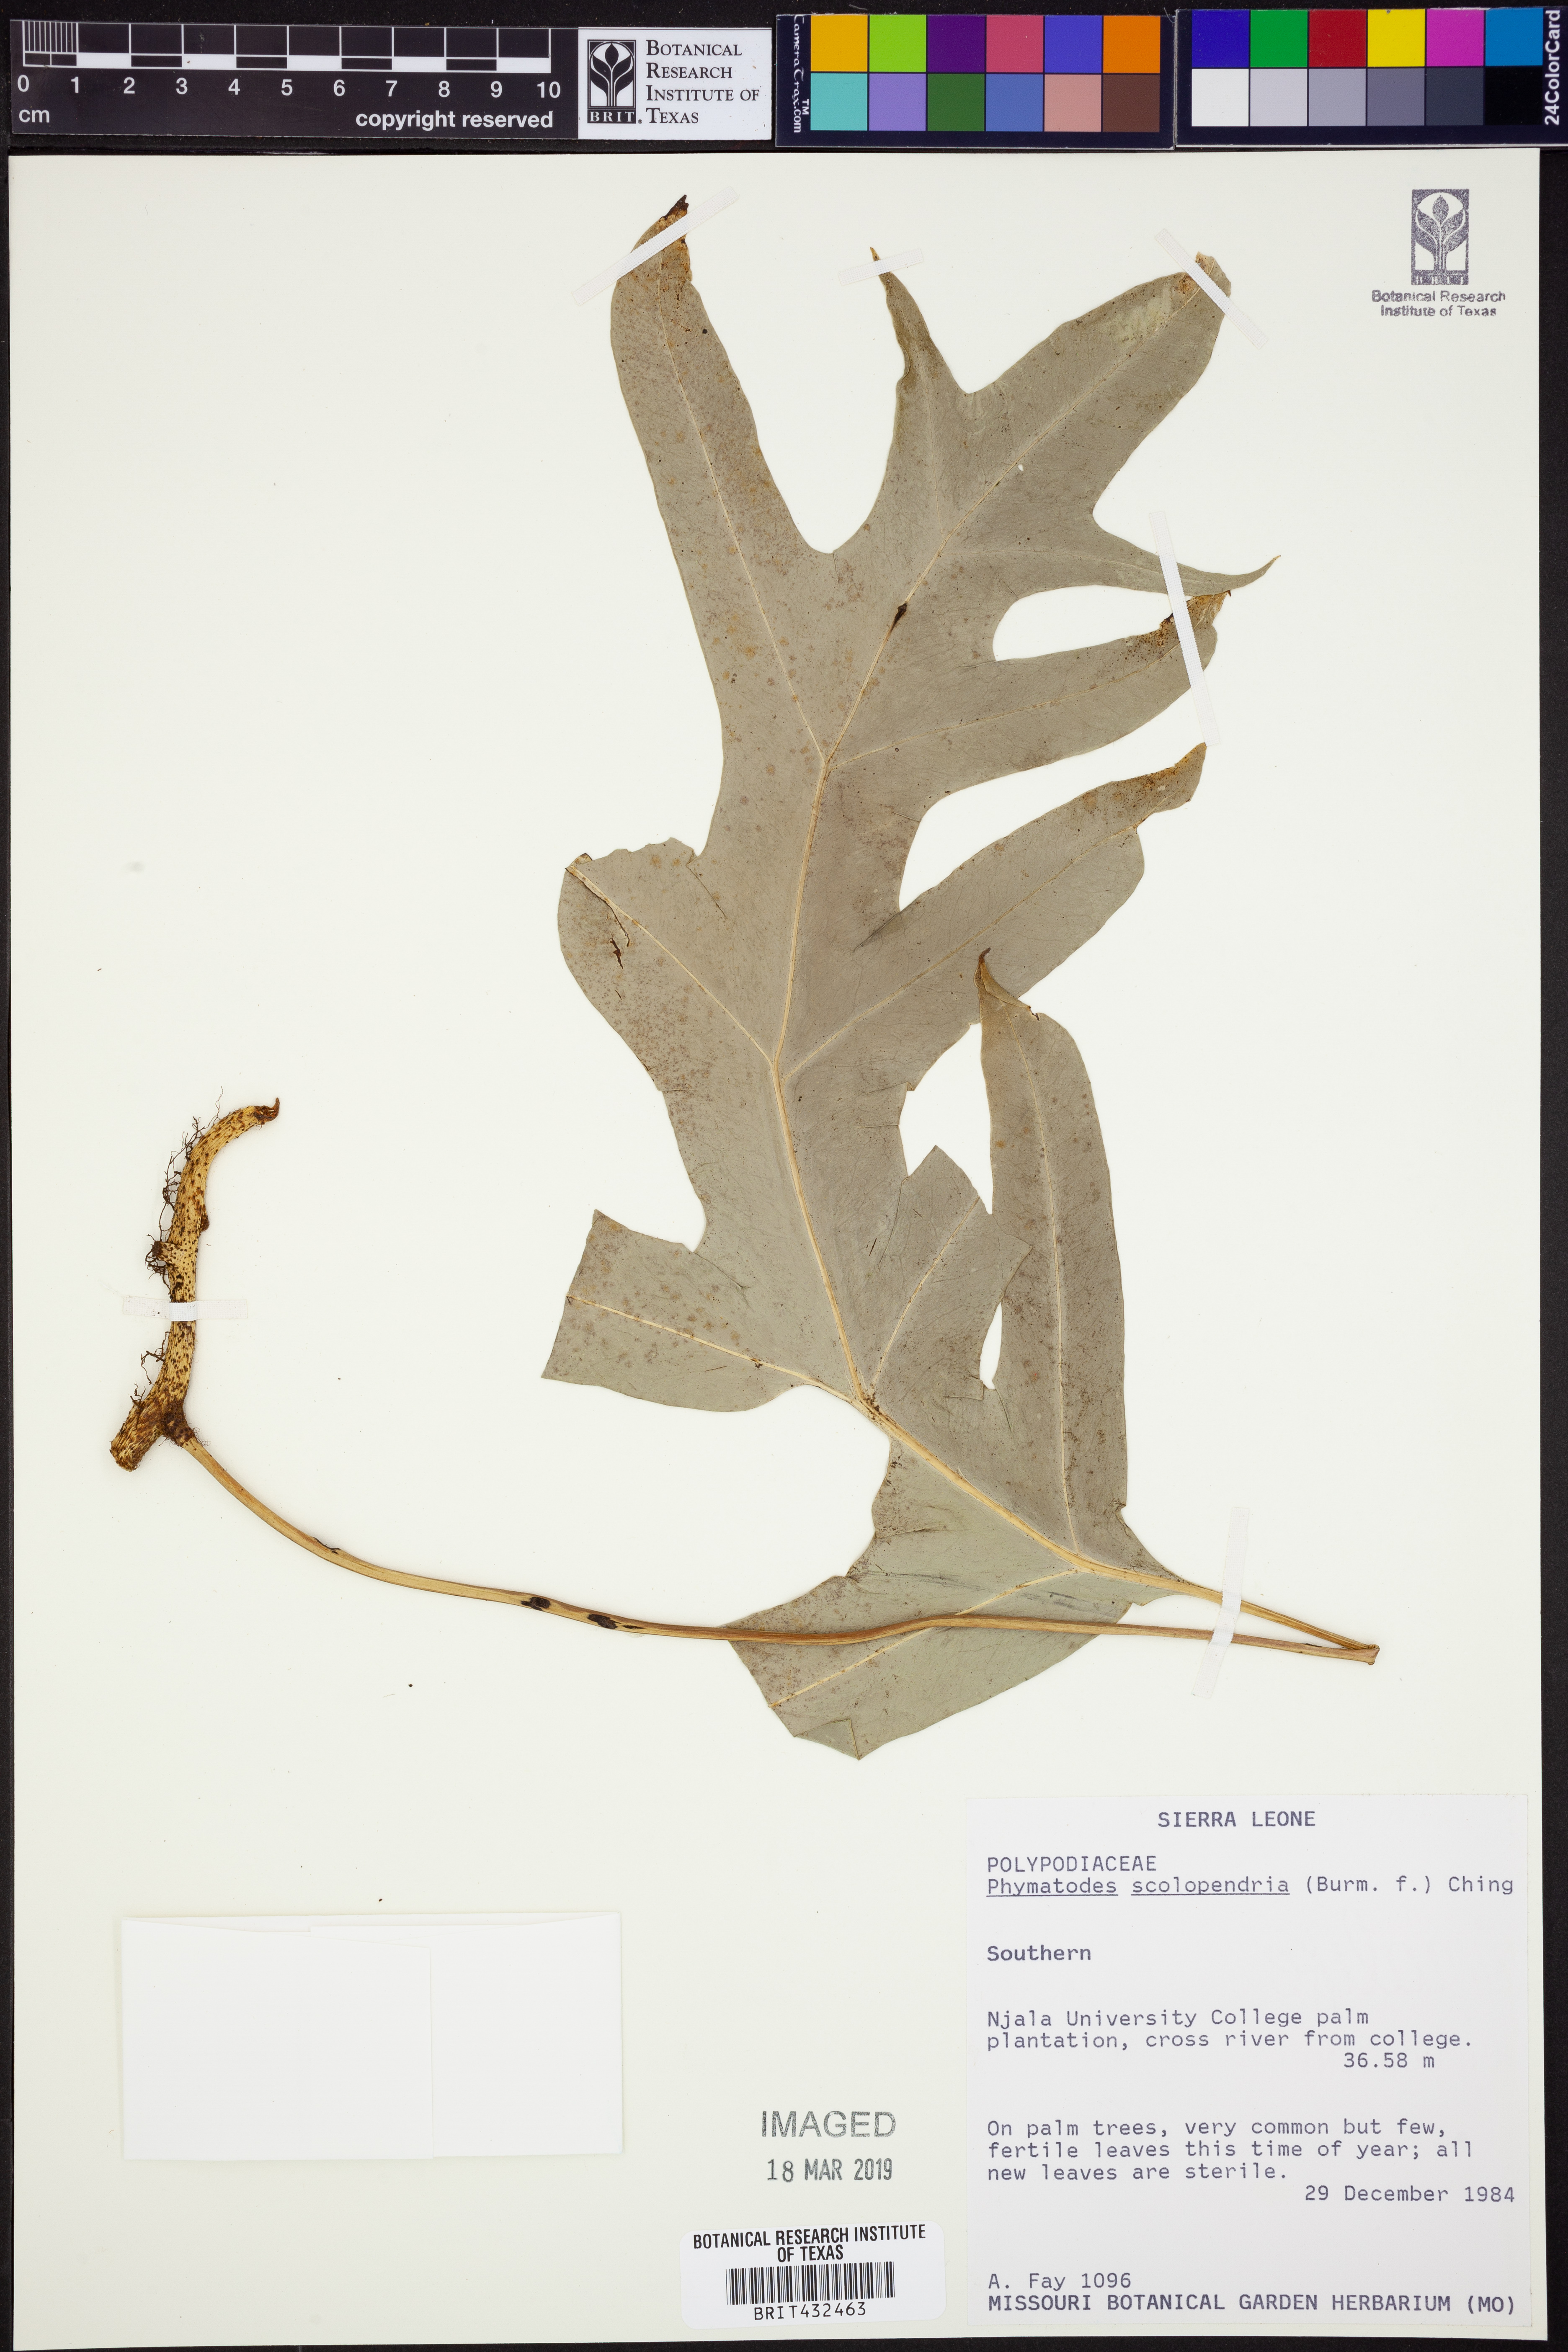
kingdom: Plantae
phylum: Tracheophyta
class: Polypodiopsida
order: Polypodiales
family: Polypodiaceae
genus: Microsorum
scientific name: Microsorum scolopendria
